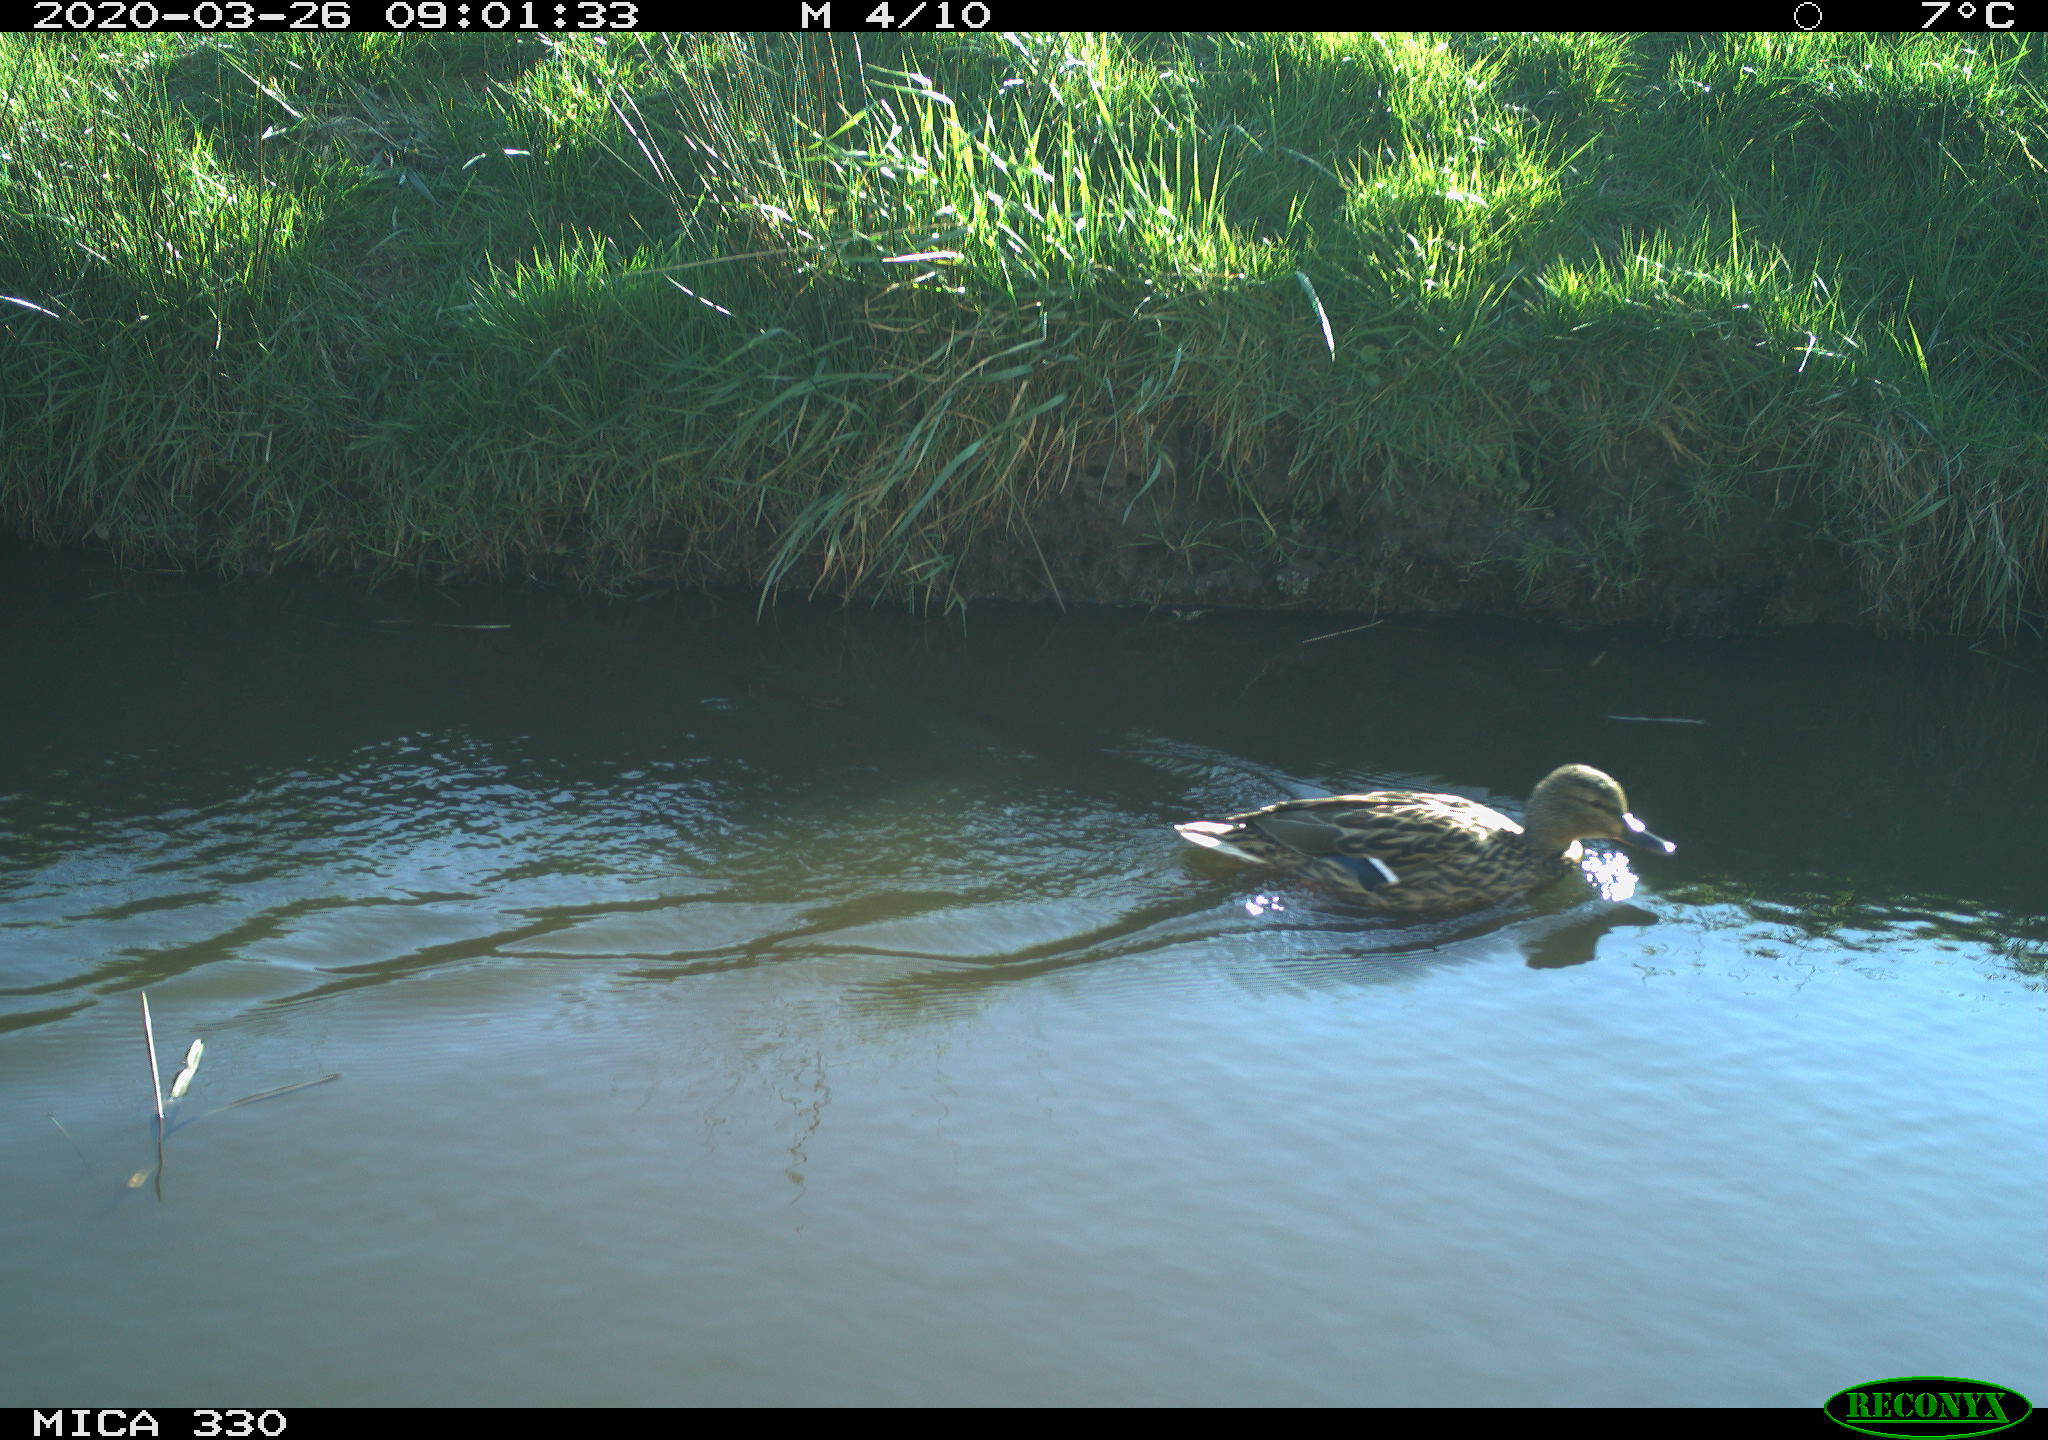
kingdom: Animalia
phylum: Chordata
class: Aves
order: Anseriformes
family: Anatidae
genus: Mareca
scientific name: Mareca strepera
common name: Gadwall
